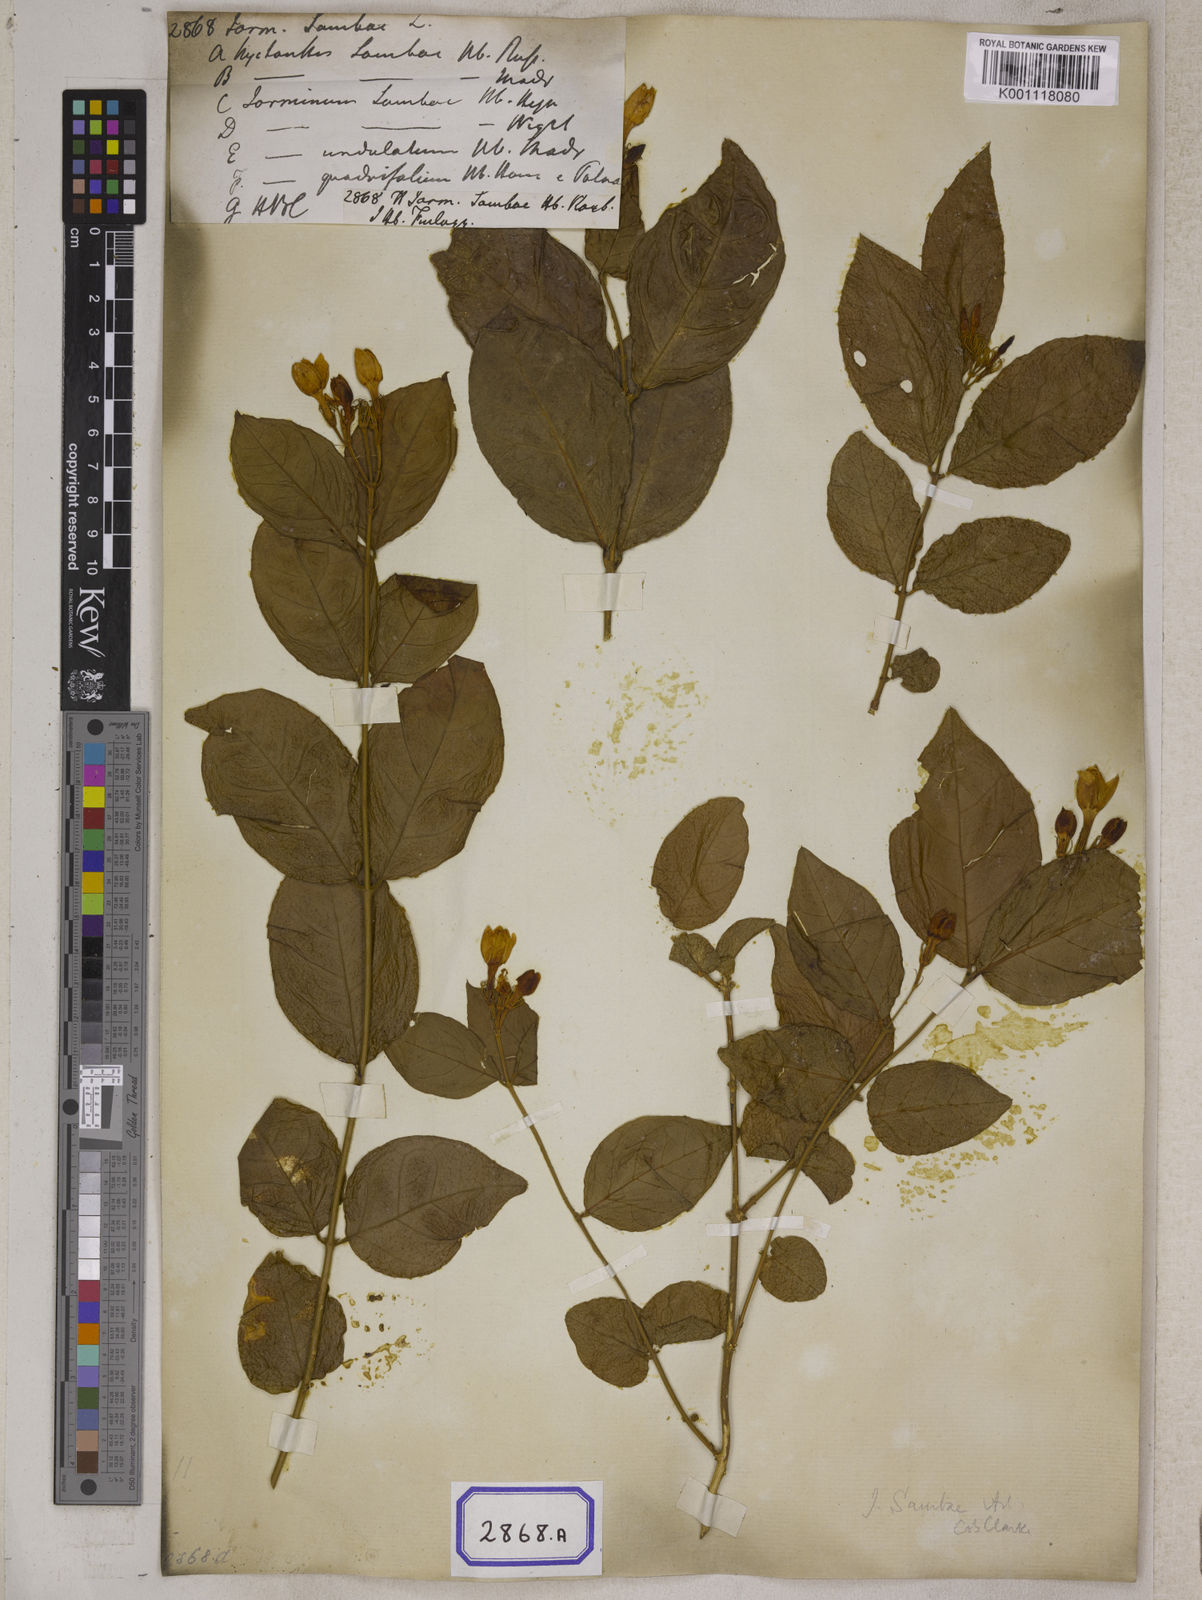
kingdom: Plantae
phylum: Tracheophyta
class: Magnoliopsida
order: Lamiales
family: Oleaceae
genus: Jasminum
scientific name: Jasminum sambac
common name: Arabian jasmine
